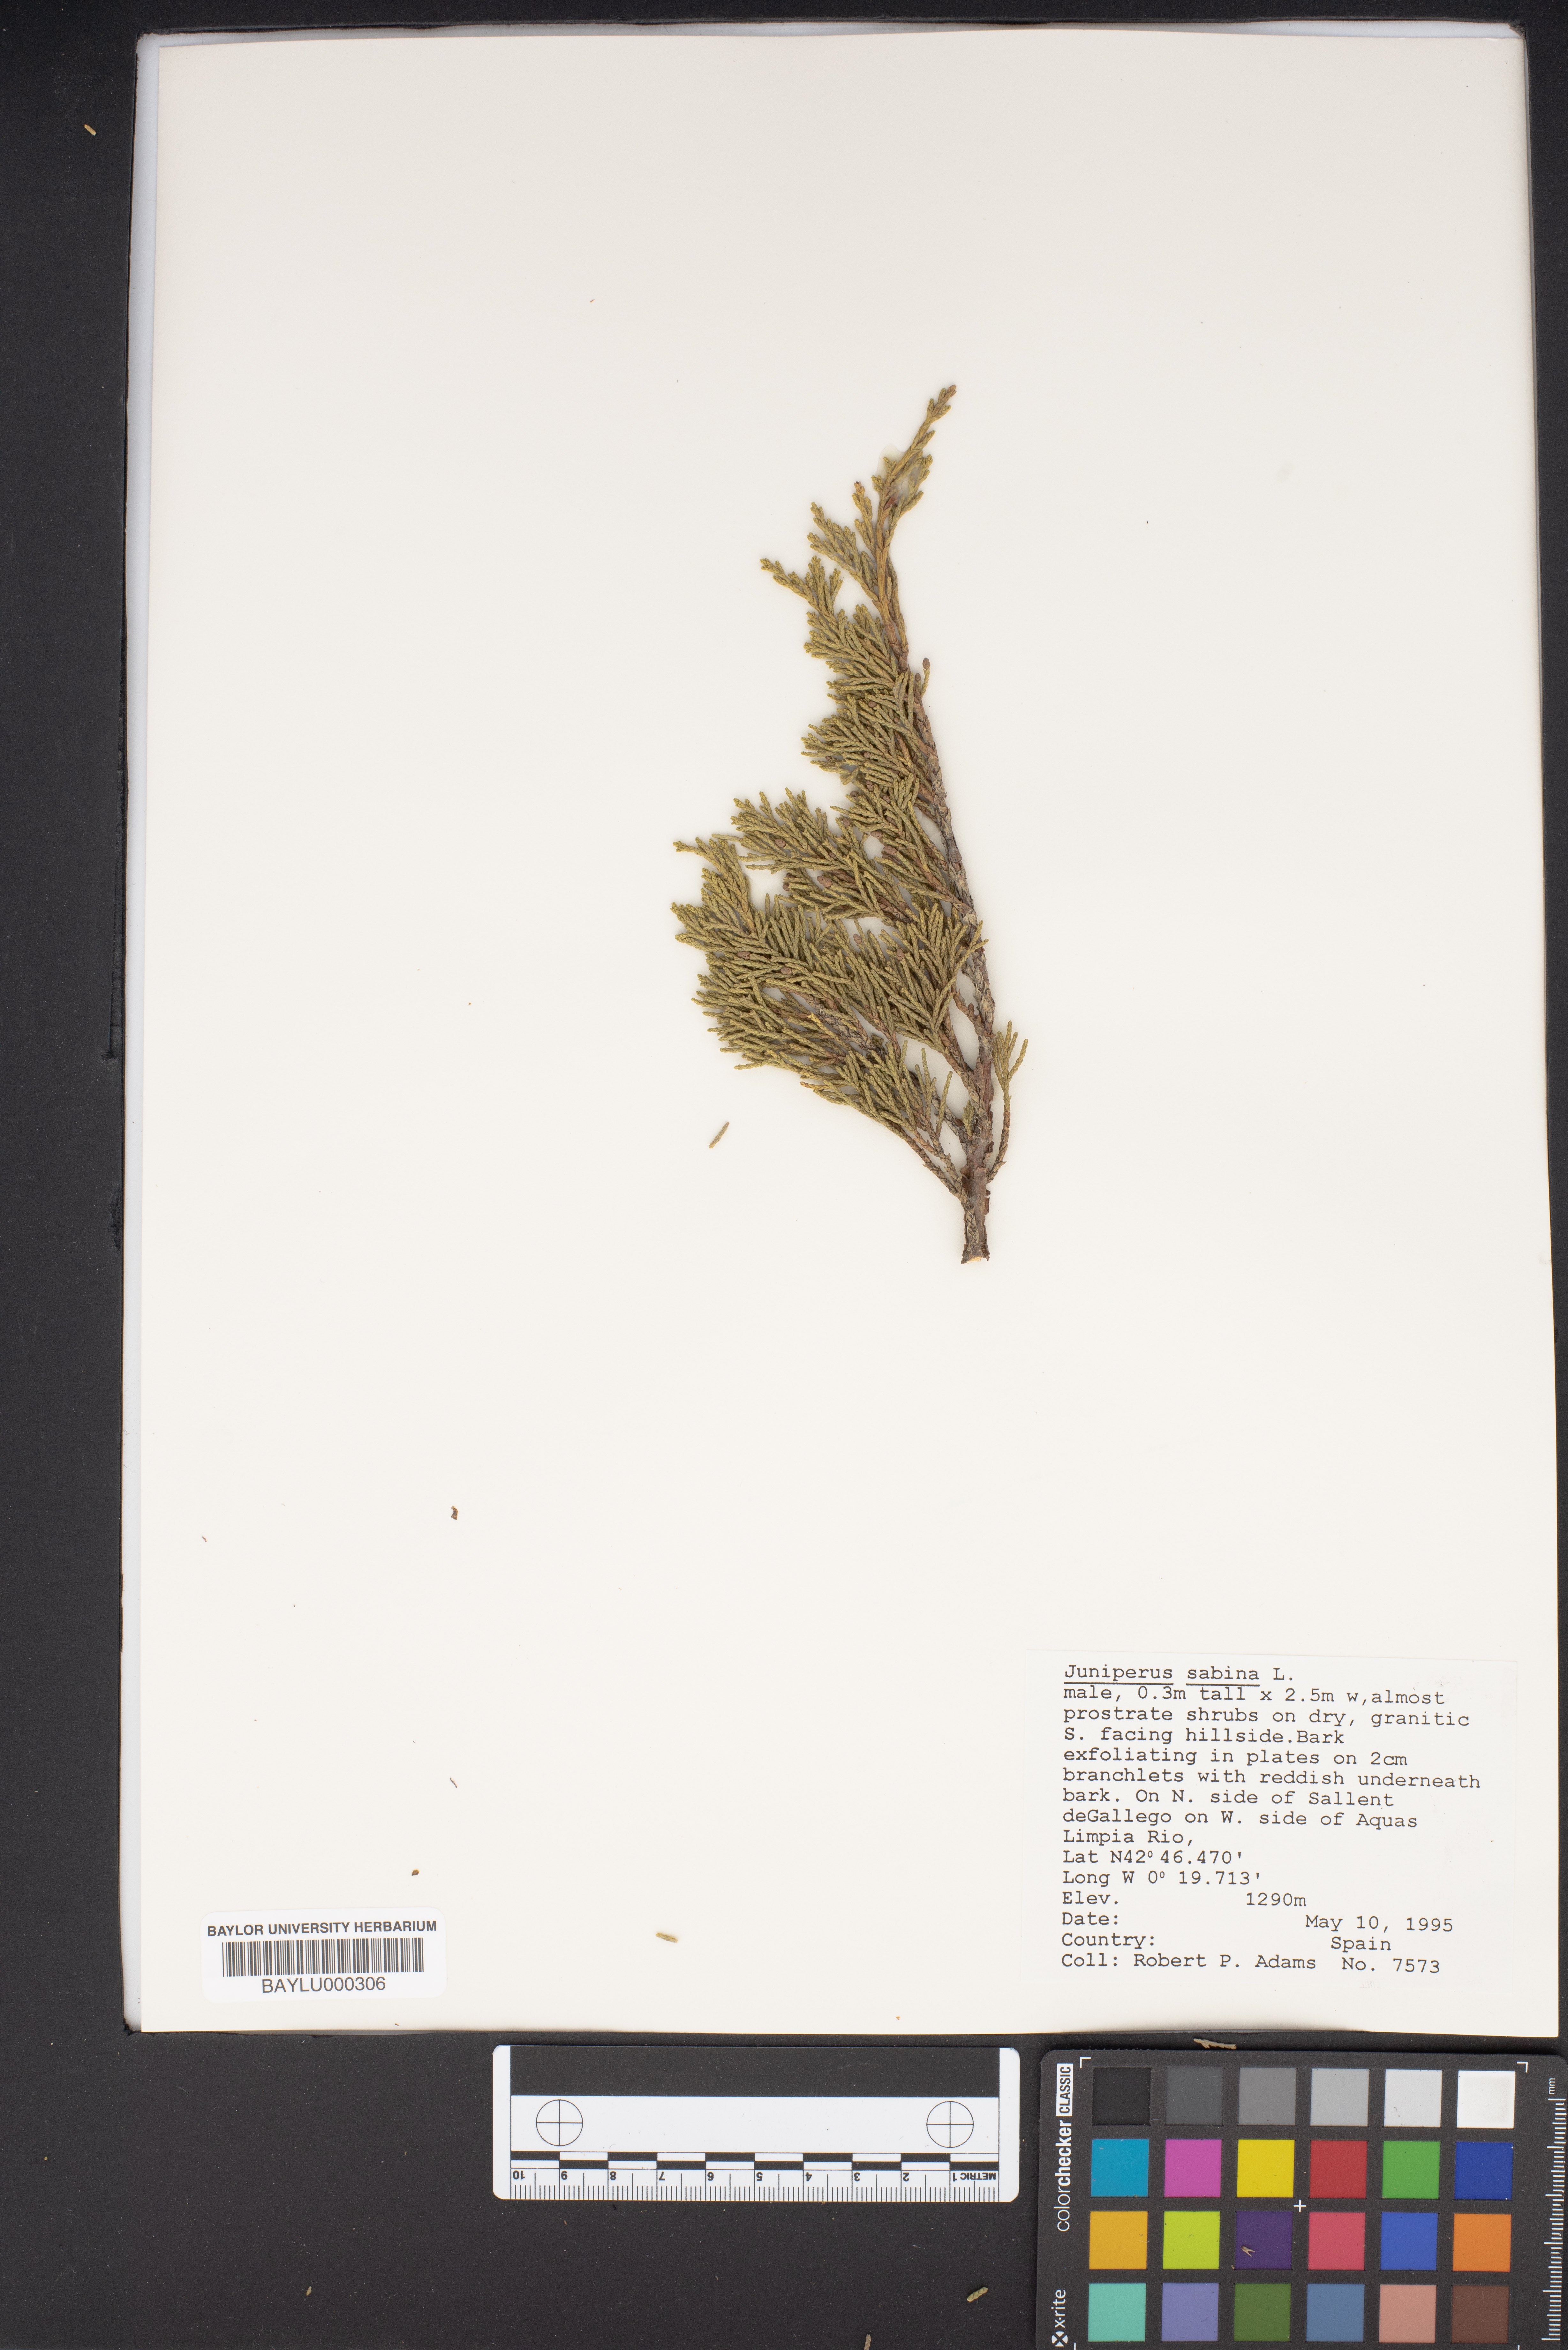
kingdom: Plantae
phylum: Tracheophyta
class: Pinopsida
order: Pinales
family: Cupressaceae
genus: Juniperus
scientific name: Juniperus sabina
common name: Savin
